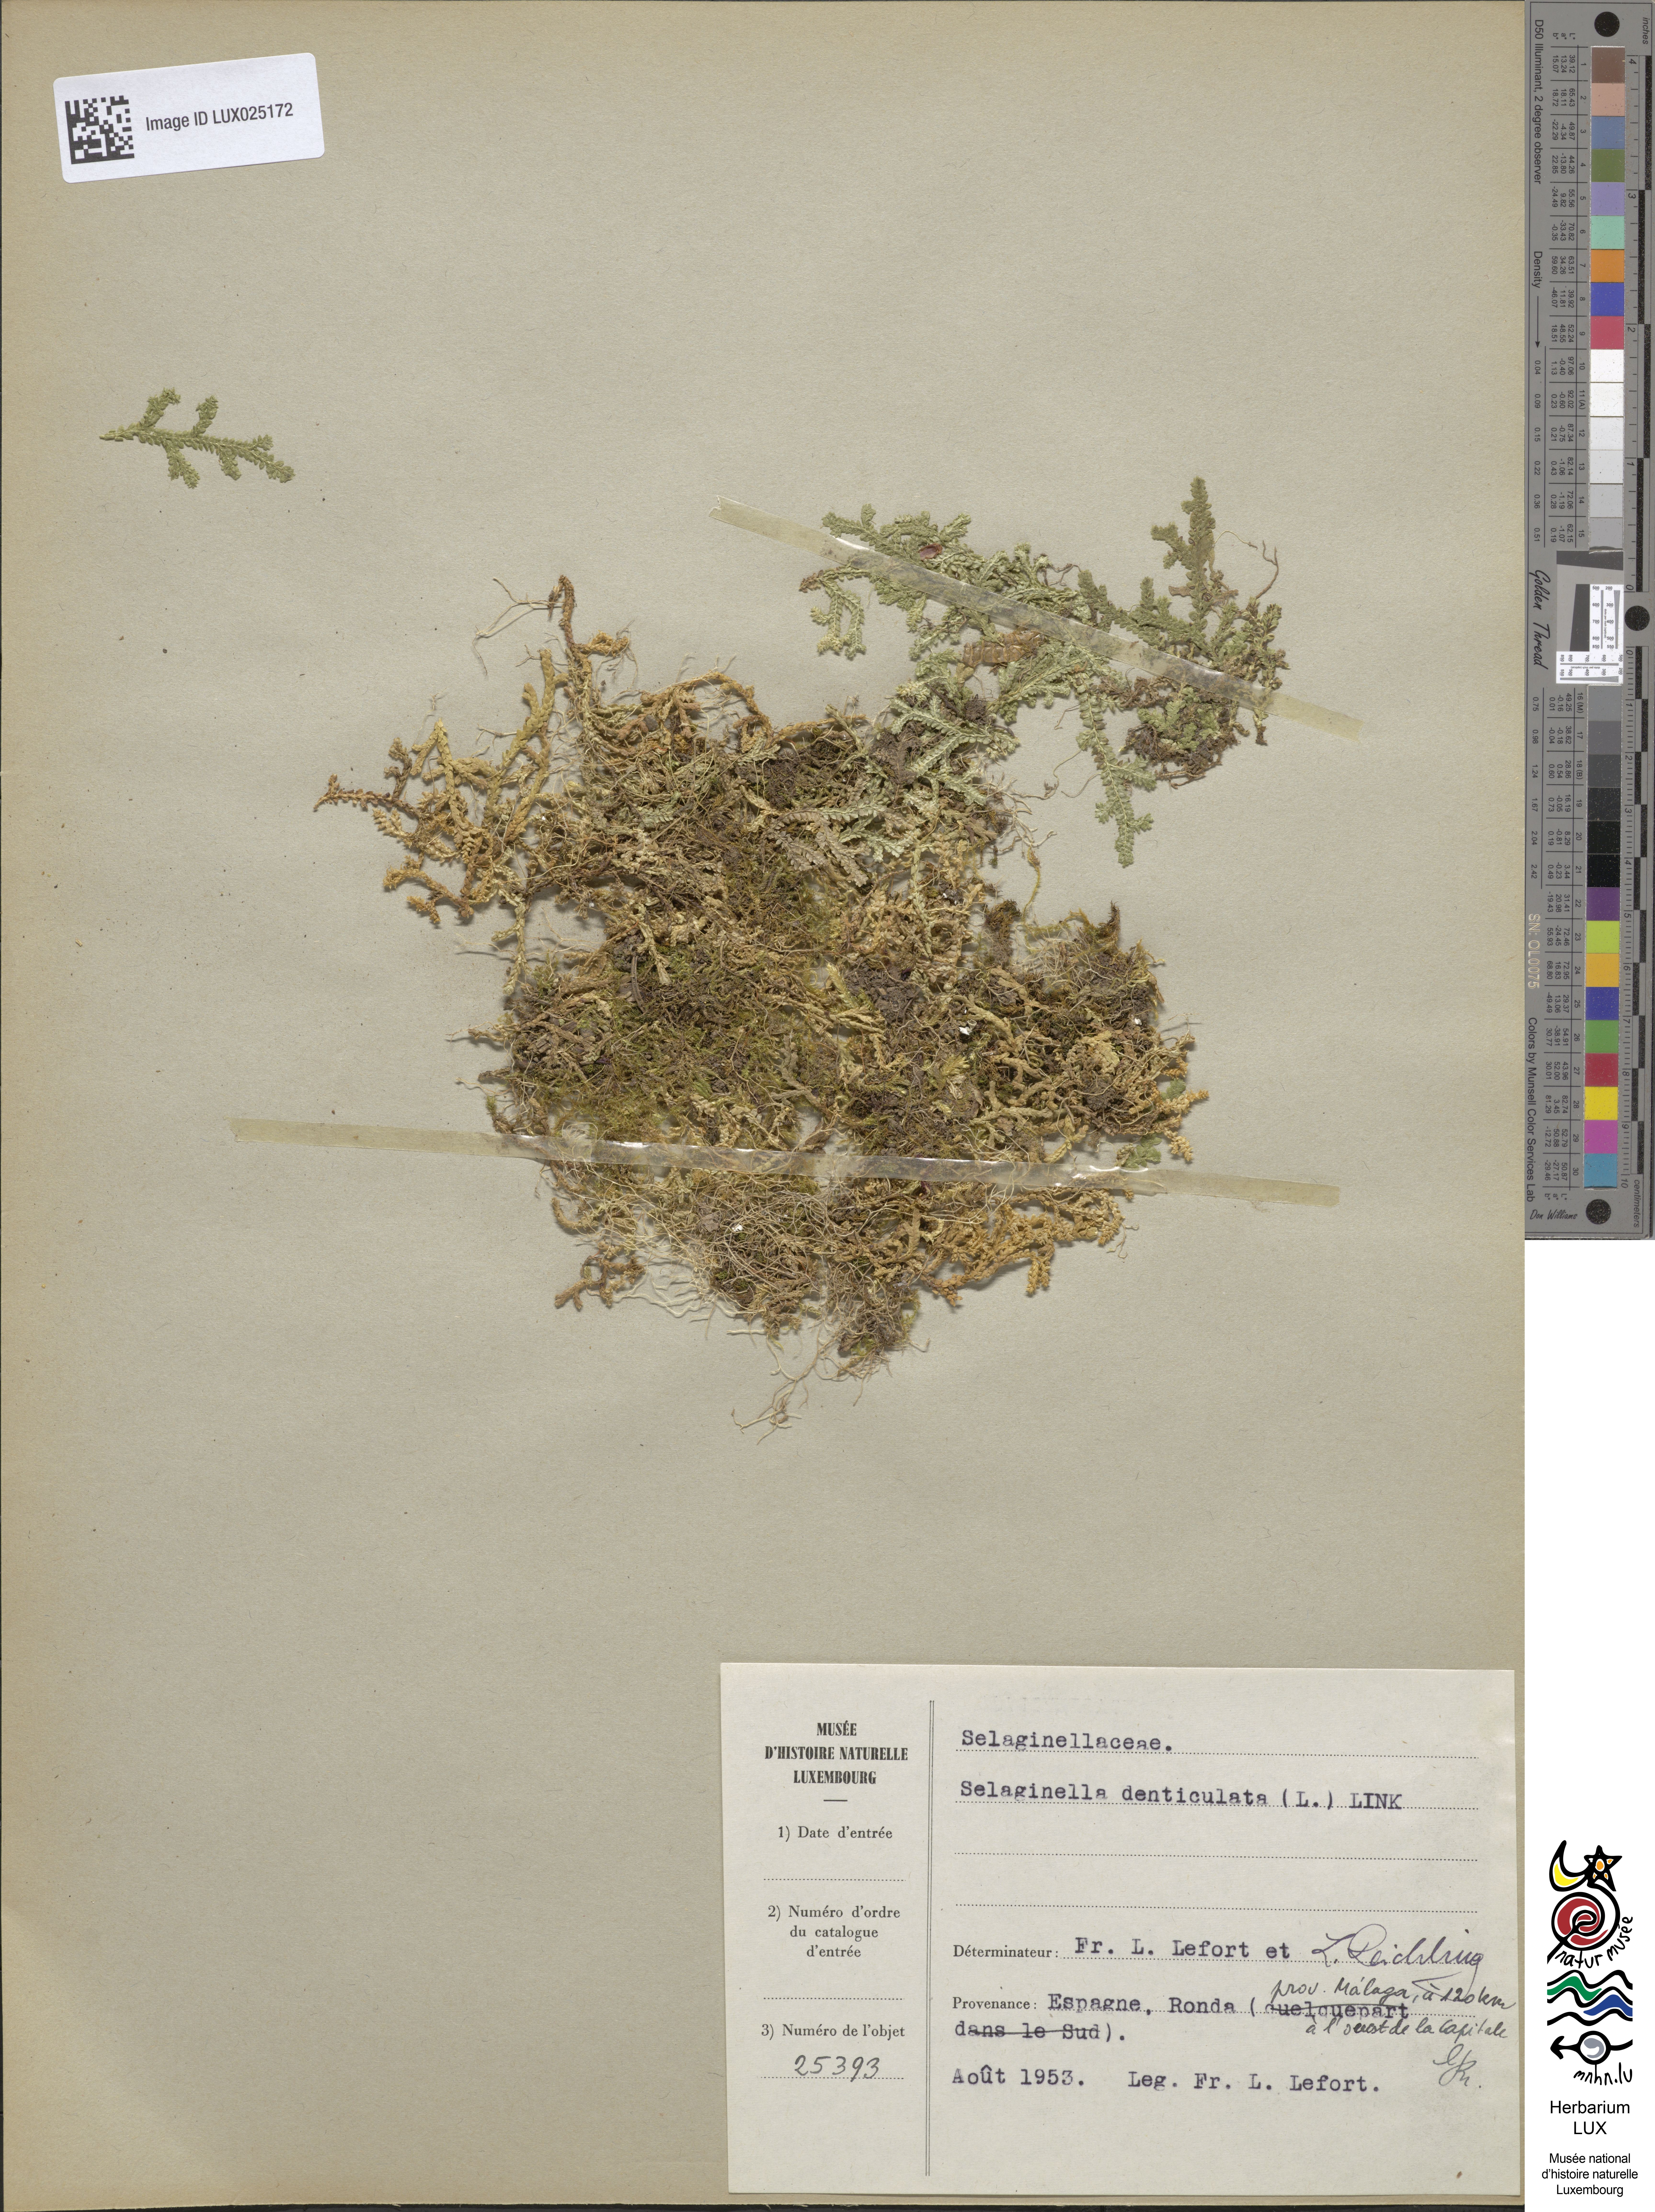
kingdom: Plantae
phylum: Tracheophyta
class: Lycopodiopsida
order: Selaginellales
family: Selaginellaceae
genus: Selaginella
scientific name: Selaginella denticulata
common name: Toothed-leaved clubmoss
